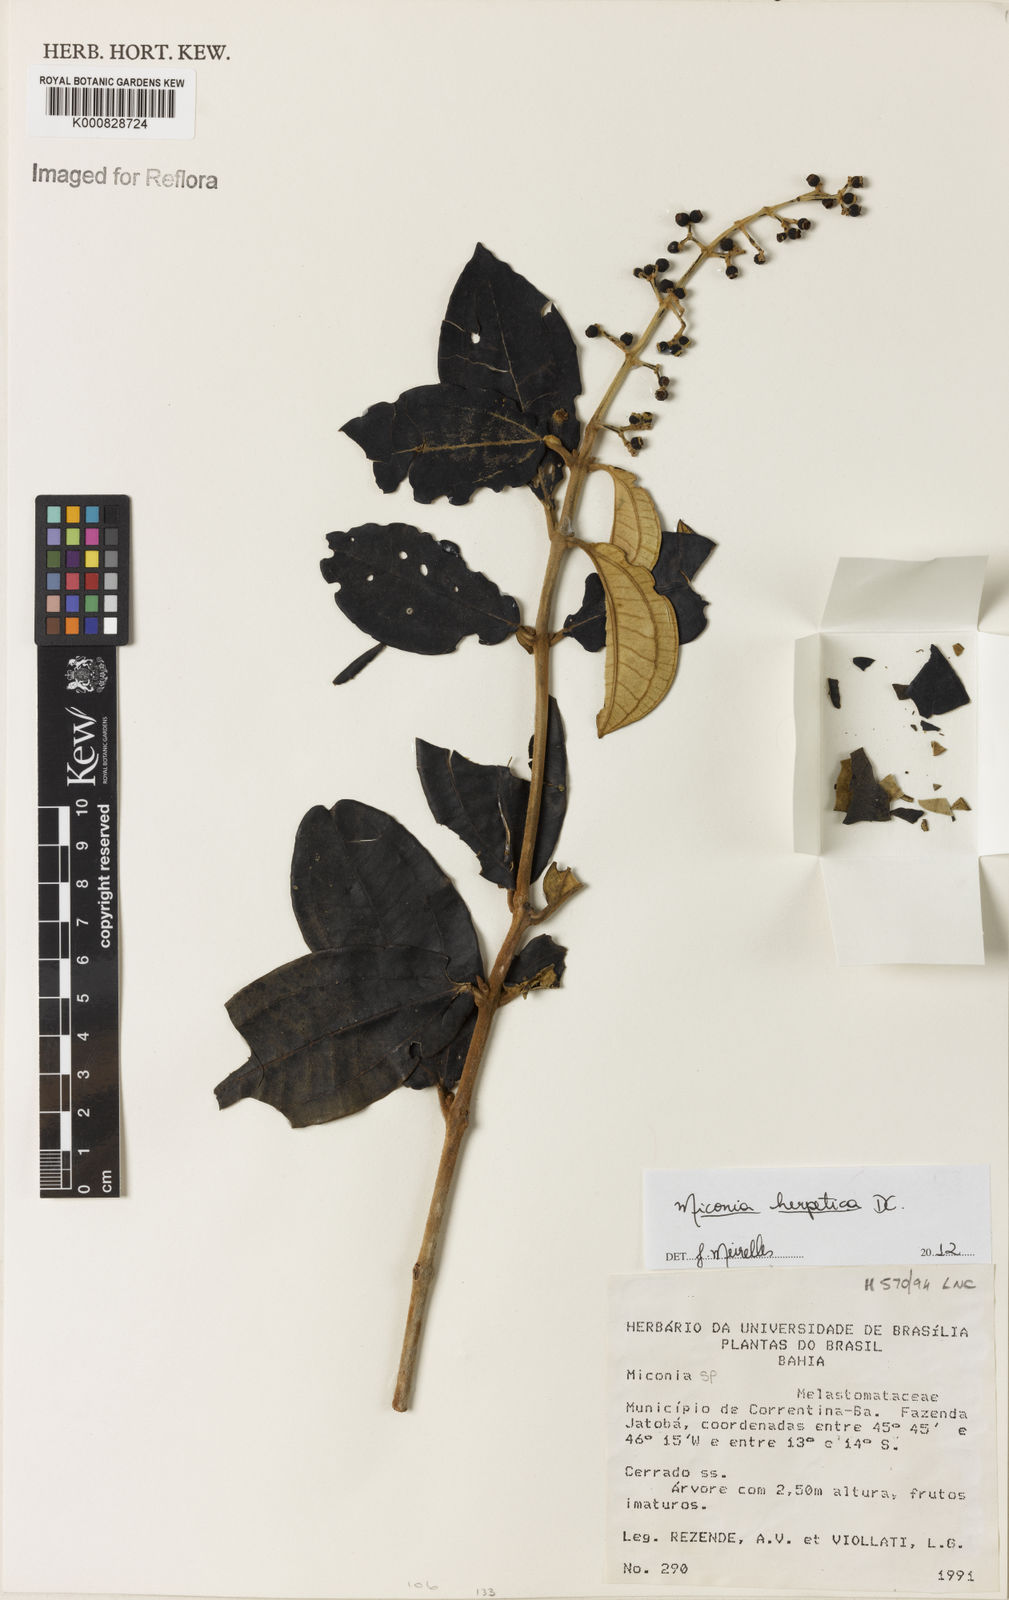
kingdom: Plantae
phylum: Tracheophyta
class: Magnoliopsida
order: Myrtales
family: Melastomataceae
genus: Miconia
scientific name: Miconia herpetica
